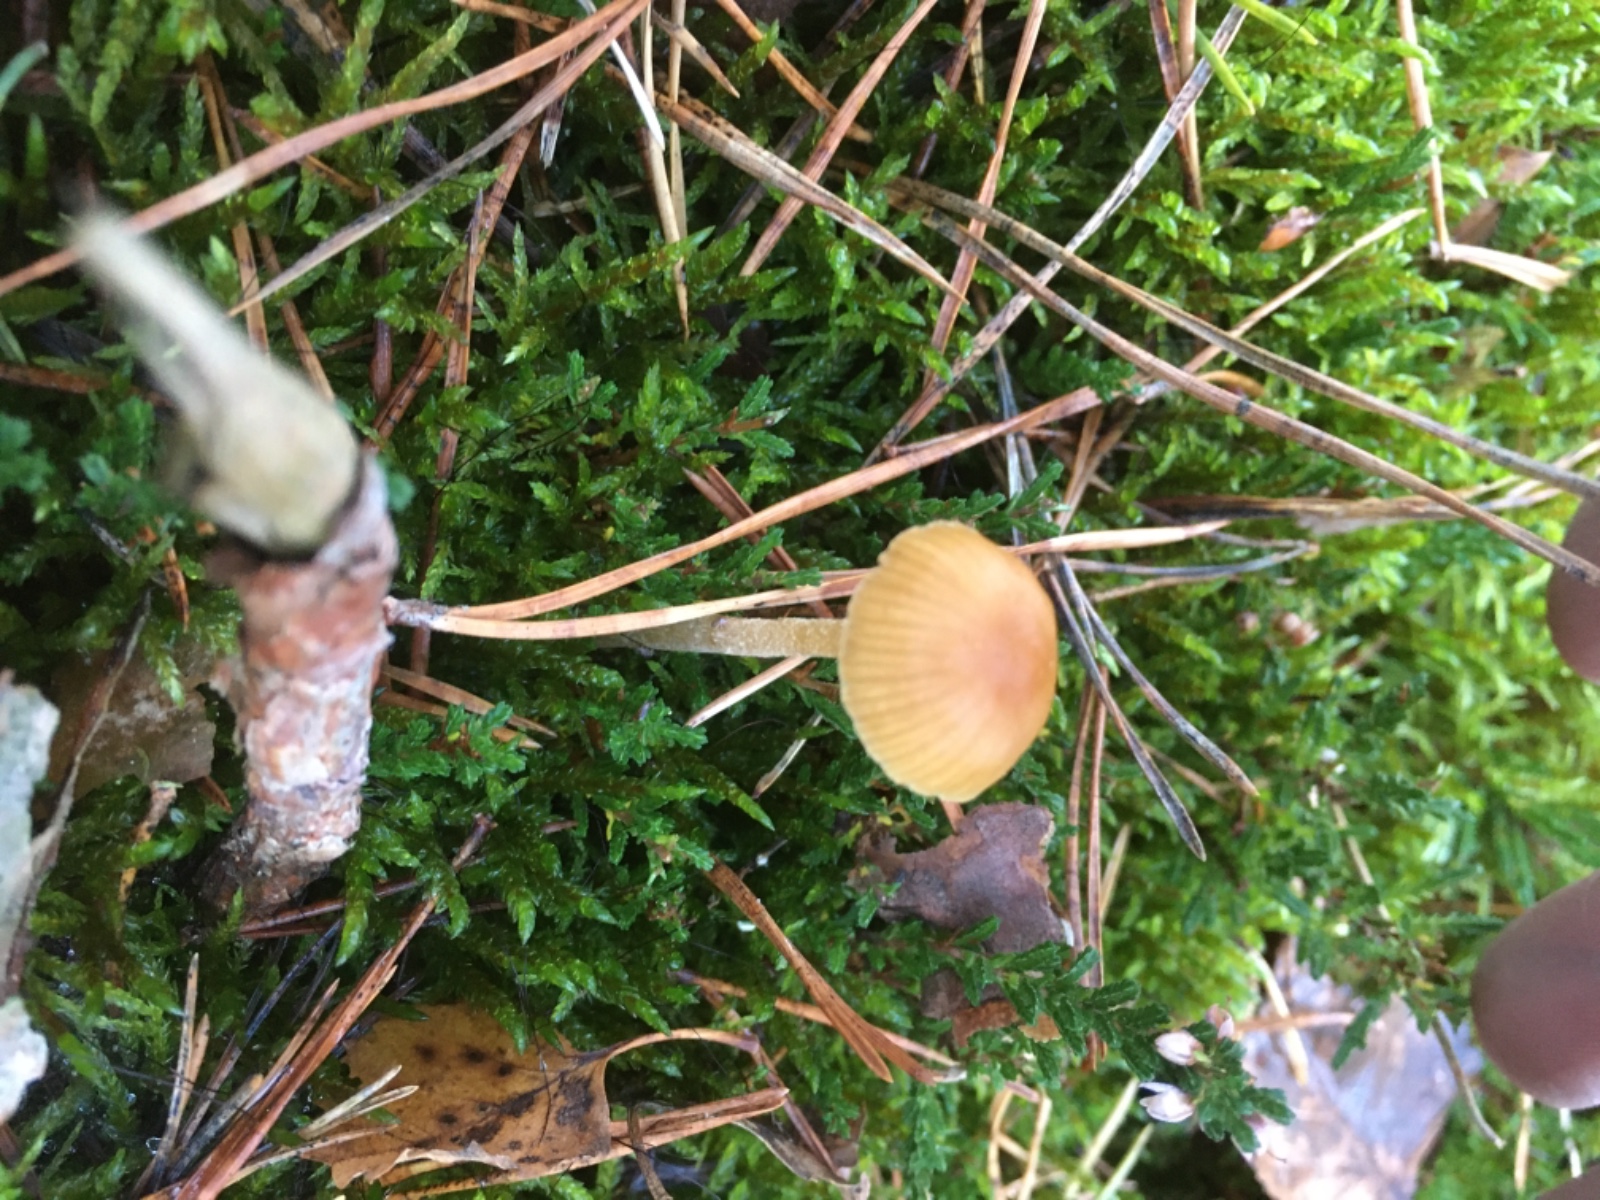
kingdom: Fungi
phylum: Basidiomycota
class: Agaricomycetes
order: Agaricales
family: Hymenogastraceae
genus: Galerina
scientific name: Galerina pumila
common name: honninggul hjelmhat
